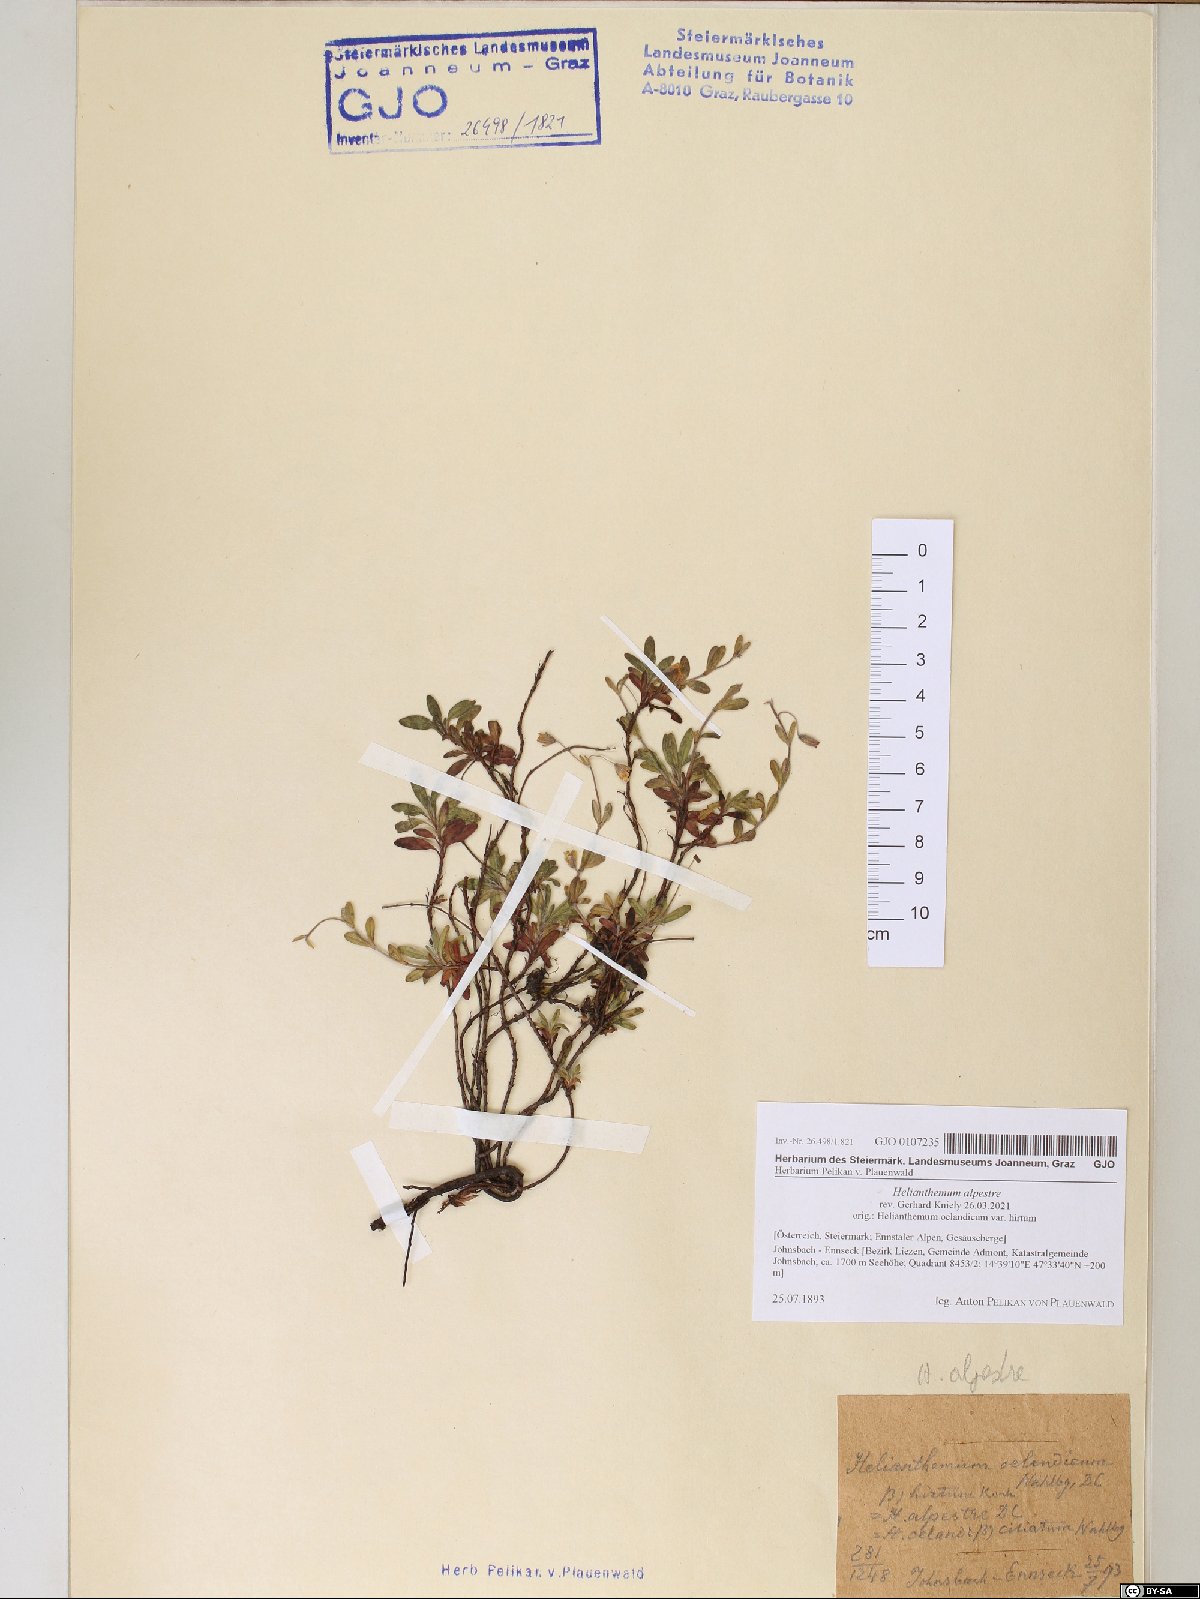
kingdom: Plantae
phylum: Tracheophyta
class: Magnoliopsida
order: Malvales
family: Cistaceae
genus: Helianthemum
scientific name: Helianthemum alpestre
